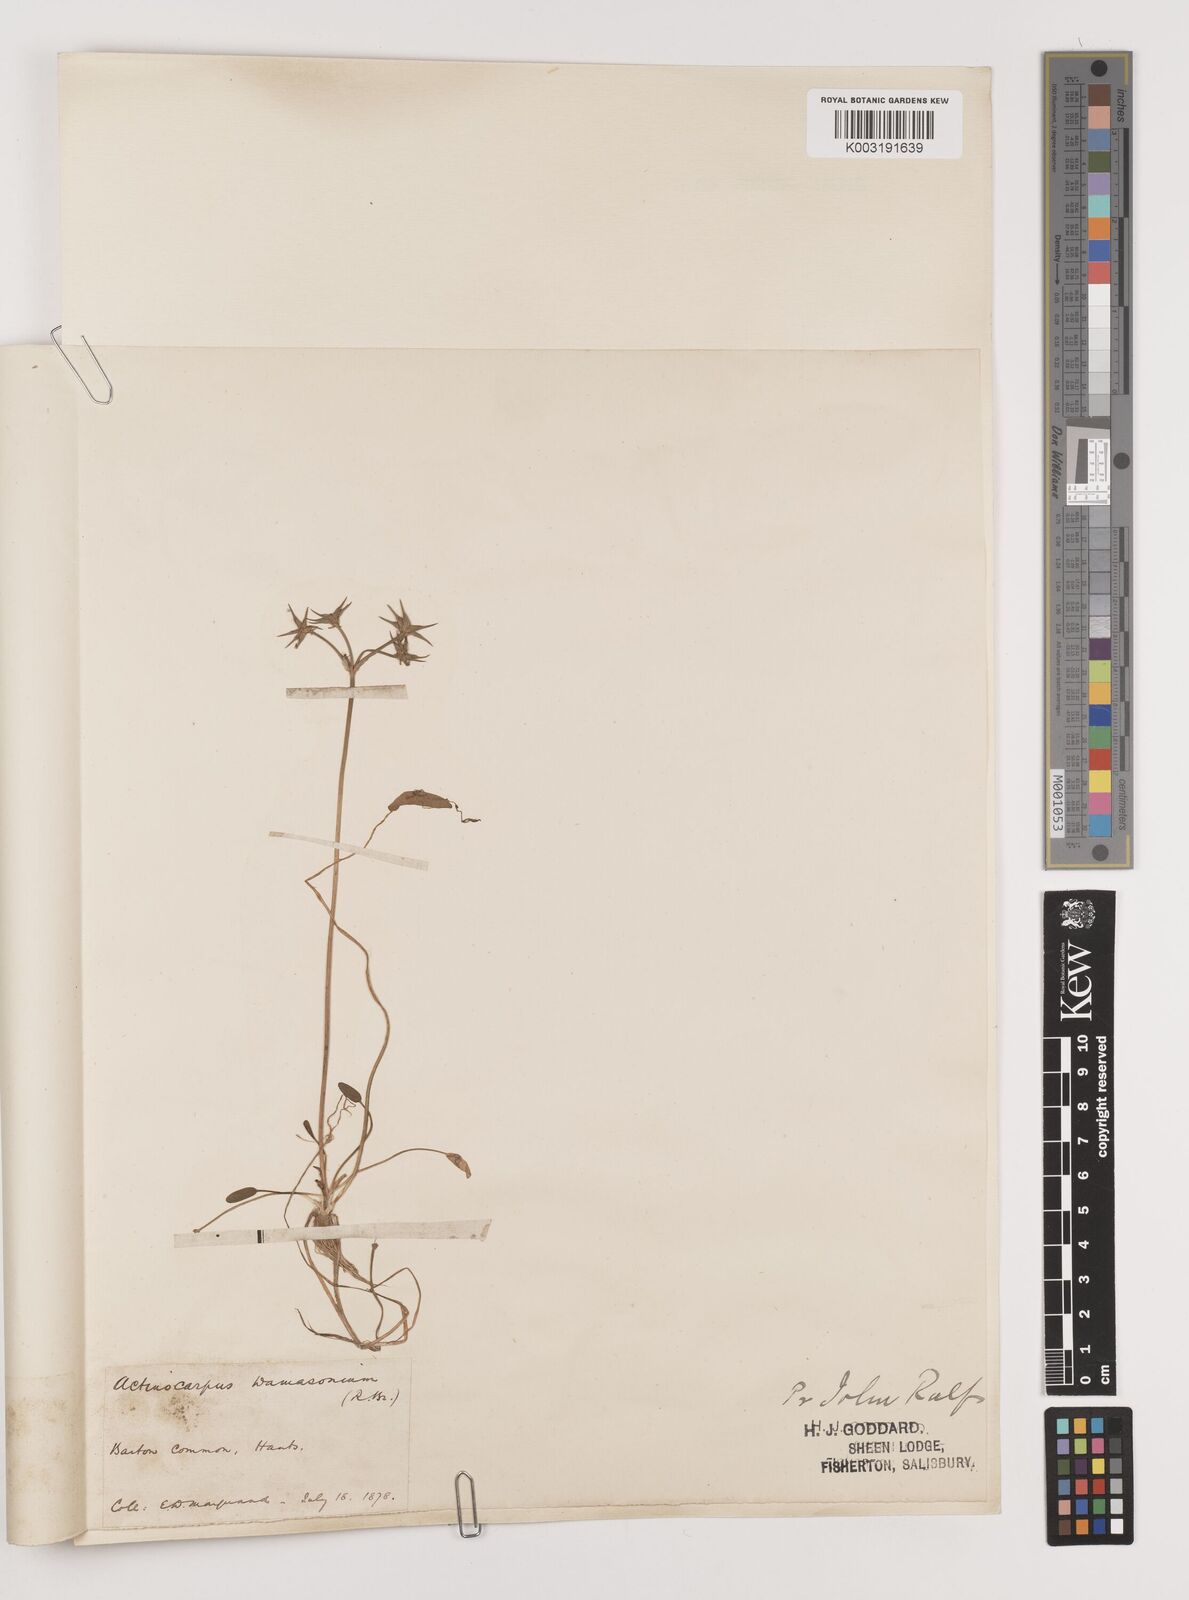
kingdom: Plantae
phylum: Tracheophyta
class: Liliopsida
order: Alismatales
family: Alismataceae
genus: Damasonium
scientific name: Damasonium alisma
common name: Starfruit
